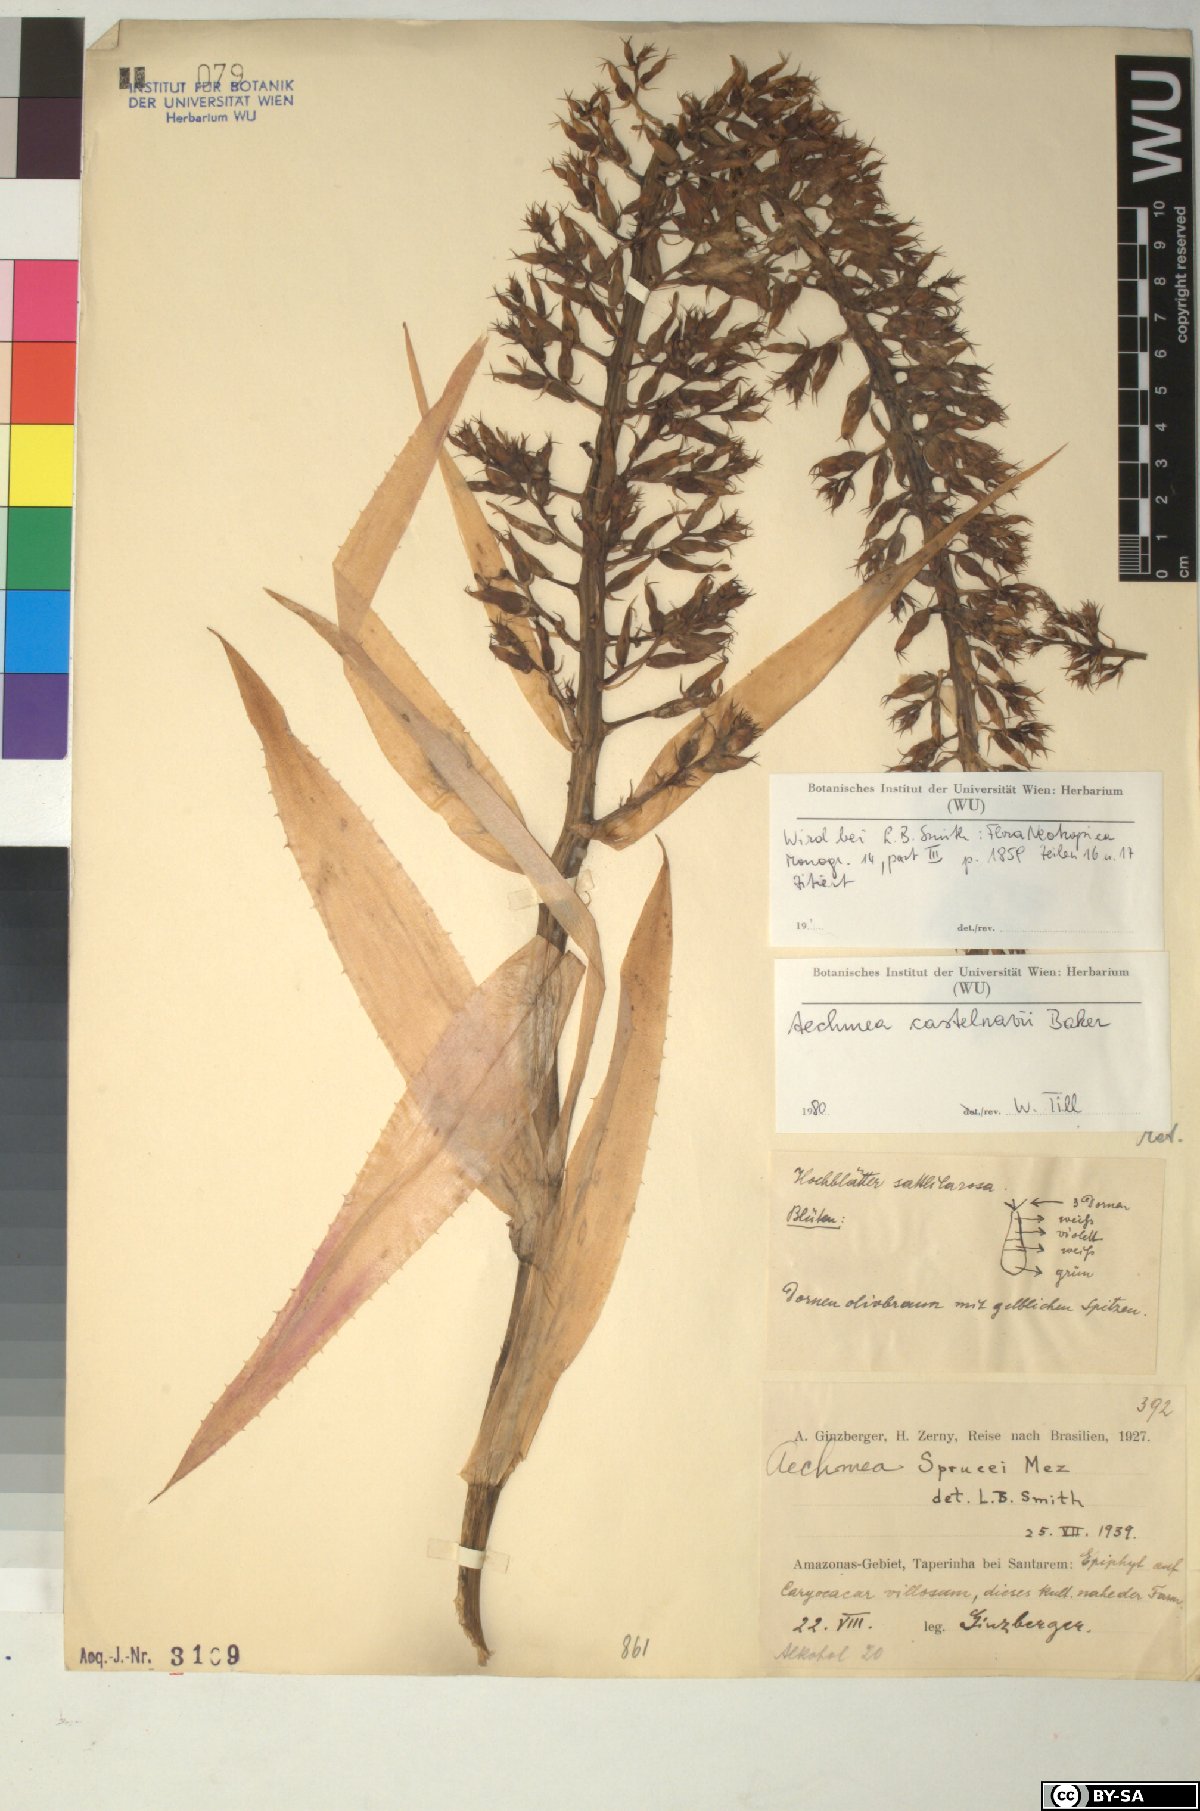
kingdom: Plantae
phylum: Tracheophyta
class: Liliopsida
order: Poales
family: Bromeliaceae
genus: Aechmea
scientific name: Aechmea castelnavii
